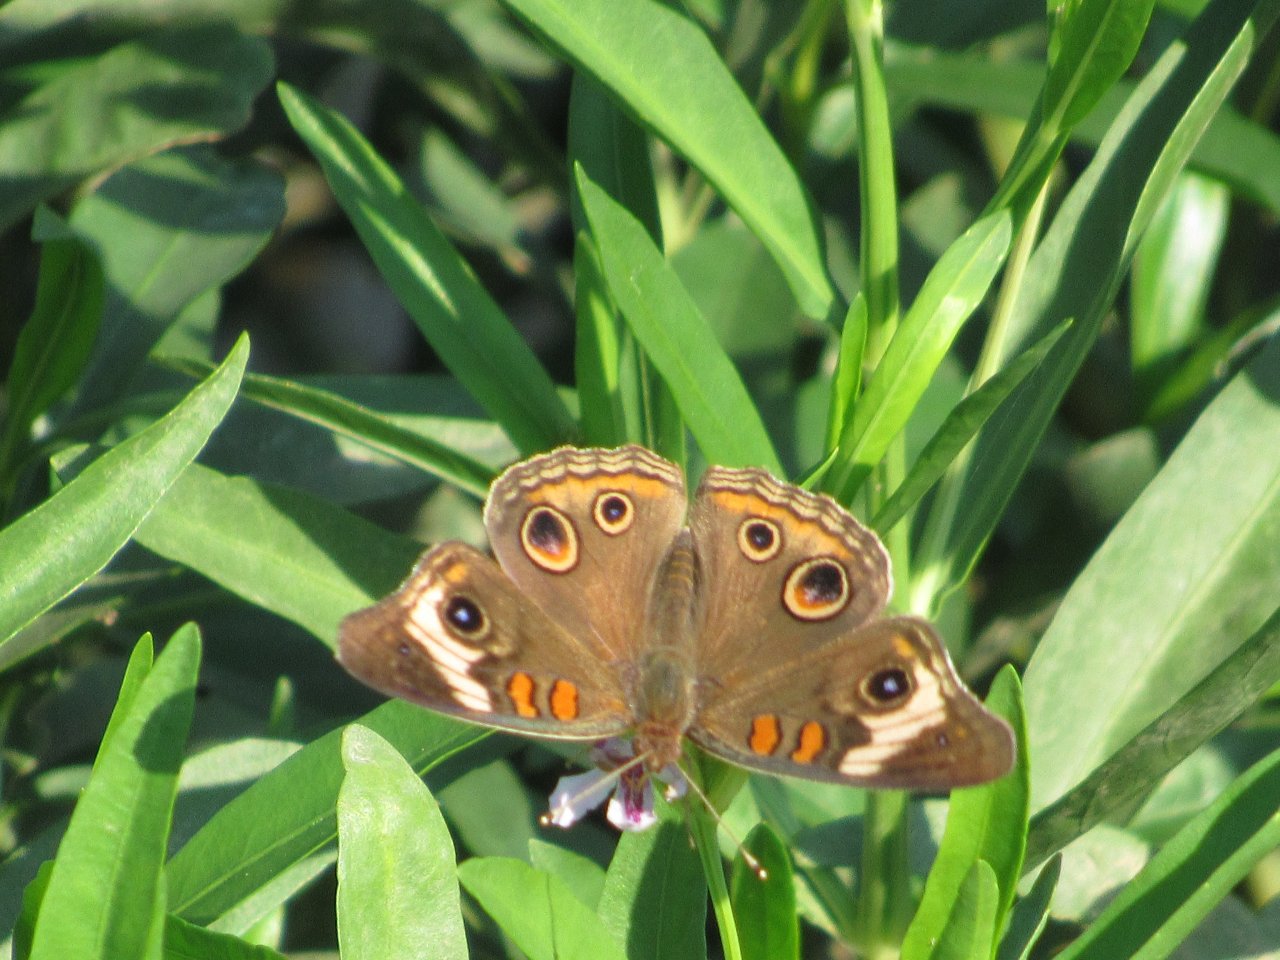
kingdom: Animalia
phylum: Arthropoda
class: Insecta
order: Lepidoptera
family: Nymphalidae
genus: Junonia
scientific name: Junonia coenia
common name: Common Buckeye
